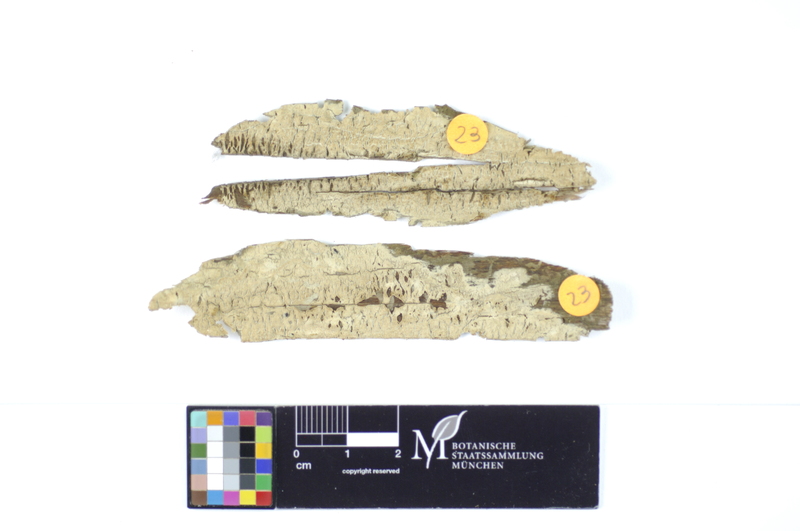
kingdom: Fungi
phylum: Basidiomycota
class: Agaricomycetes
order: Polyporales
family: Hyphodermataceae
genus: Hyphoderma
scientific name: Hyphoderma setigerum
